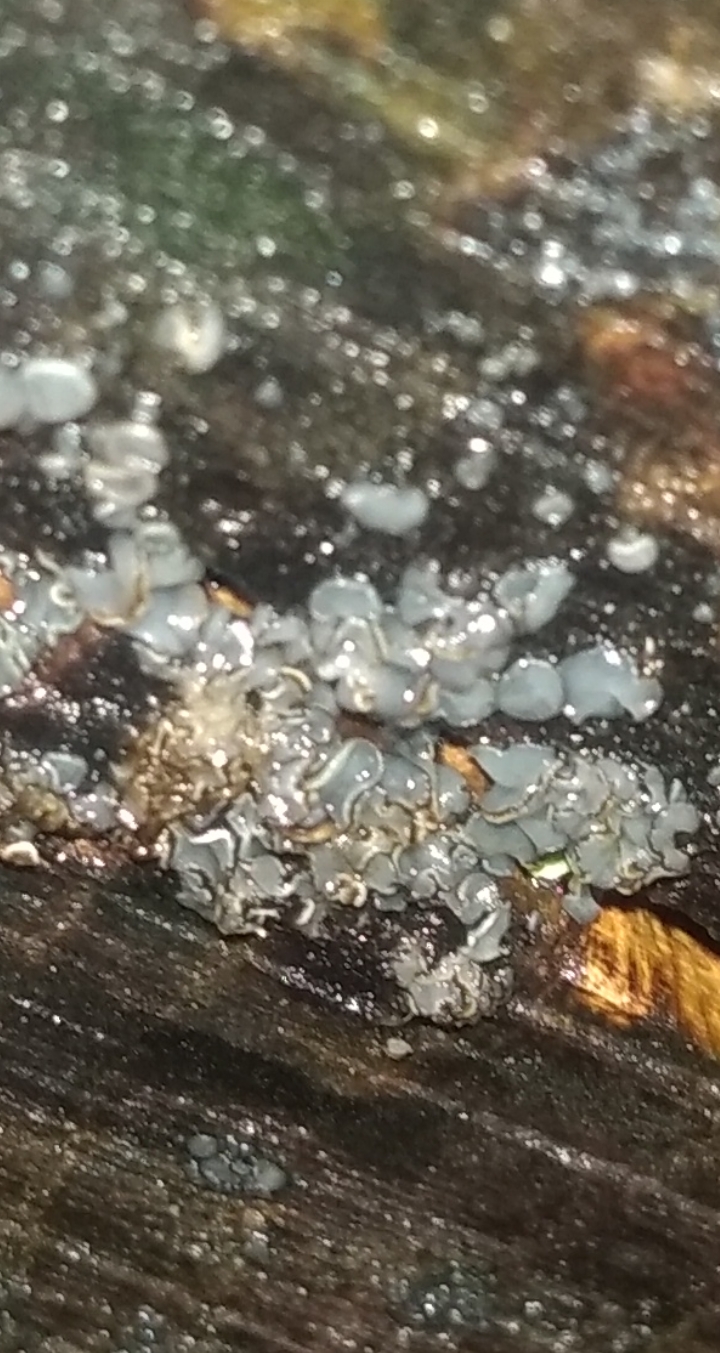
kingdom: Fungi
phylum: Ascomycota
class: Leotiomycetes
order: Helotiales
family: Mollisiaceae
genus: Mollisia
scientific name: Mollisia
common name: gråskive
